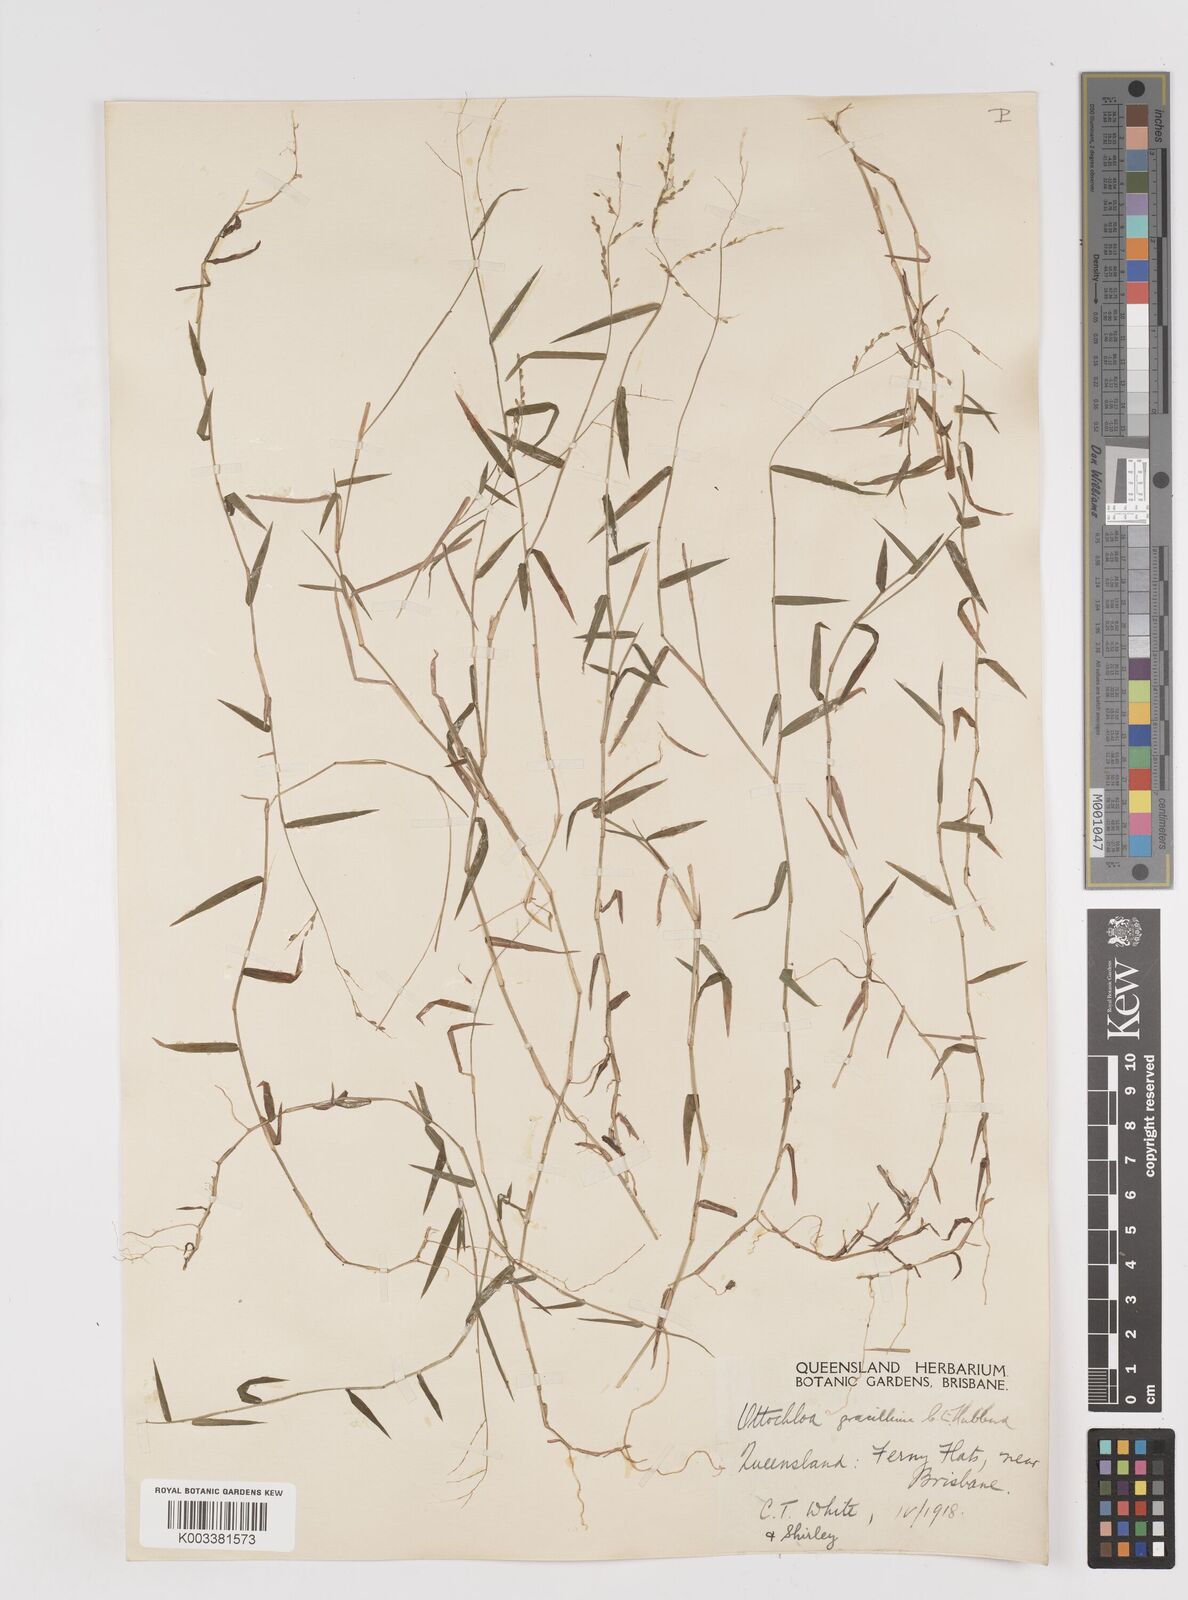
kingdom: Plantae
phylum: Tracheophyta
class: Liliopsida
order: Poales
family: Poaceae
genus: Ottochloa
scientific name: Ottochloa gracillima
